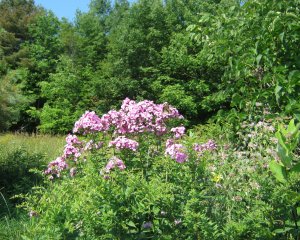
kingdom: Animalia
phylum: Arthropoda
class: Insecta
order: Lepidoptera
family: Papilionidae
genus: Papilio
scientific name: Papilio cresphontes
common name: Eastern Giant Swallowtail
